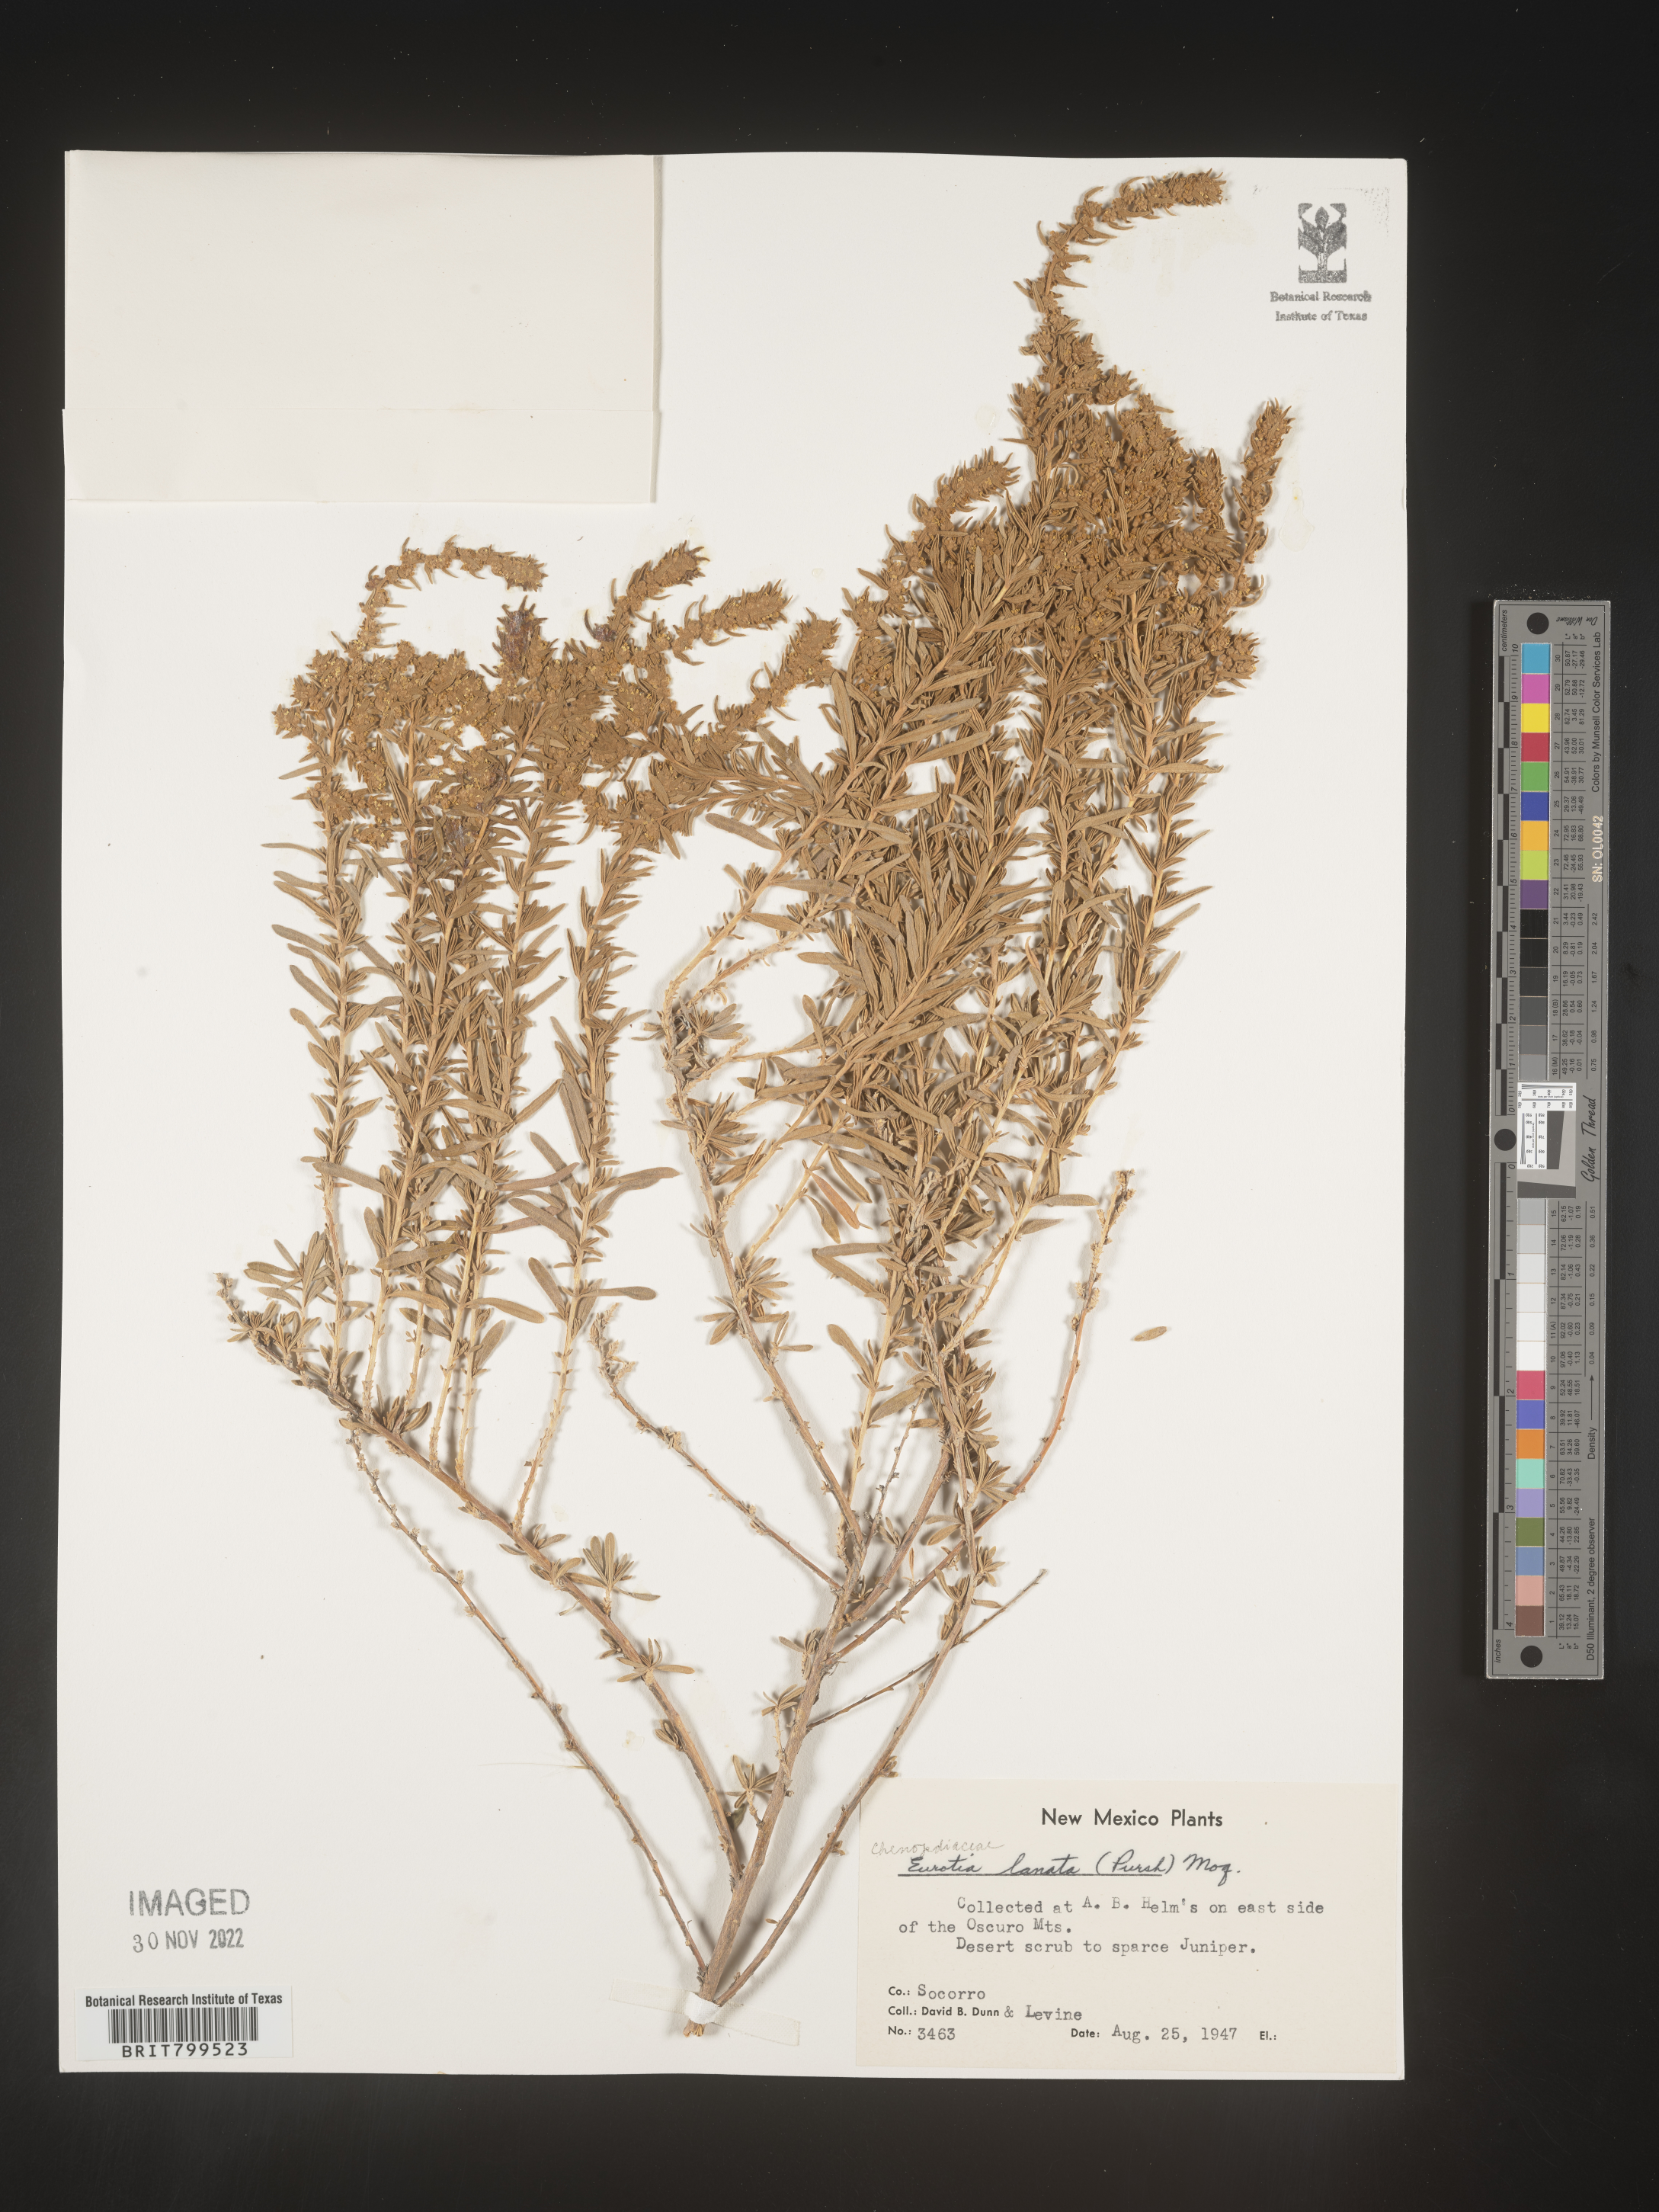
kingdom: Plantae
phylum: Tracheophyta
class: Magnoliopsida
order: Caryophyllales
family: Amaranthaceae
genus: Krascheninnikovia
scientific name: Krascheninnikovia
